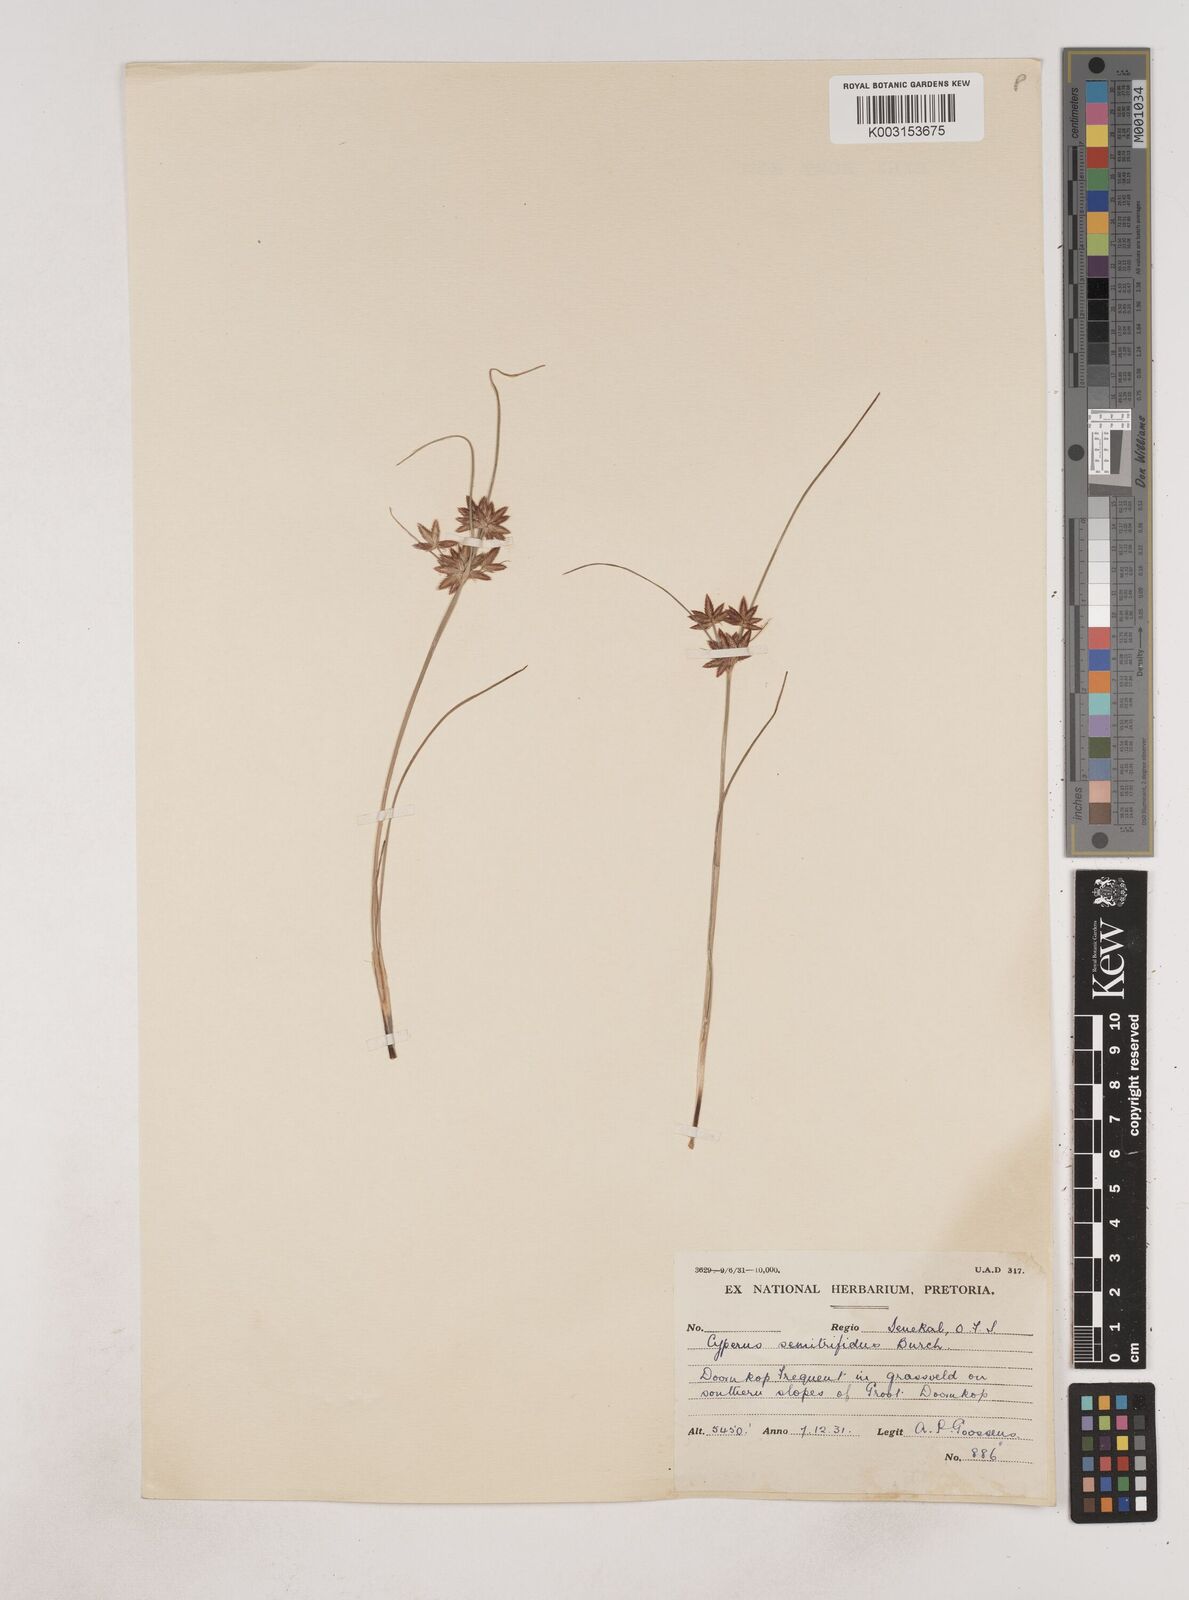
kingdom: Plantae
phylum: Tracheophyta
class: Liliopsida
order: Poales
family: Cyperaceae
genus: Cyperus
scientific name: Cyperus semitrifidus
